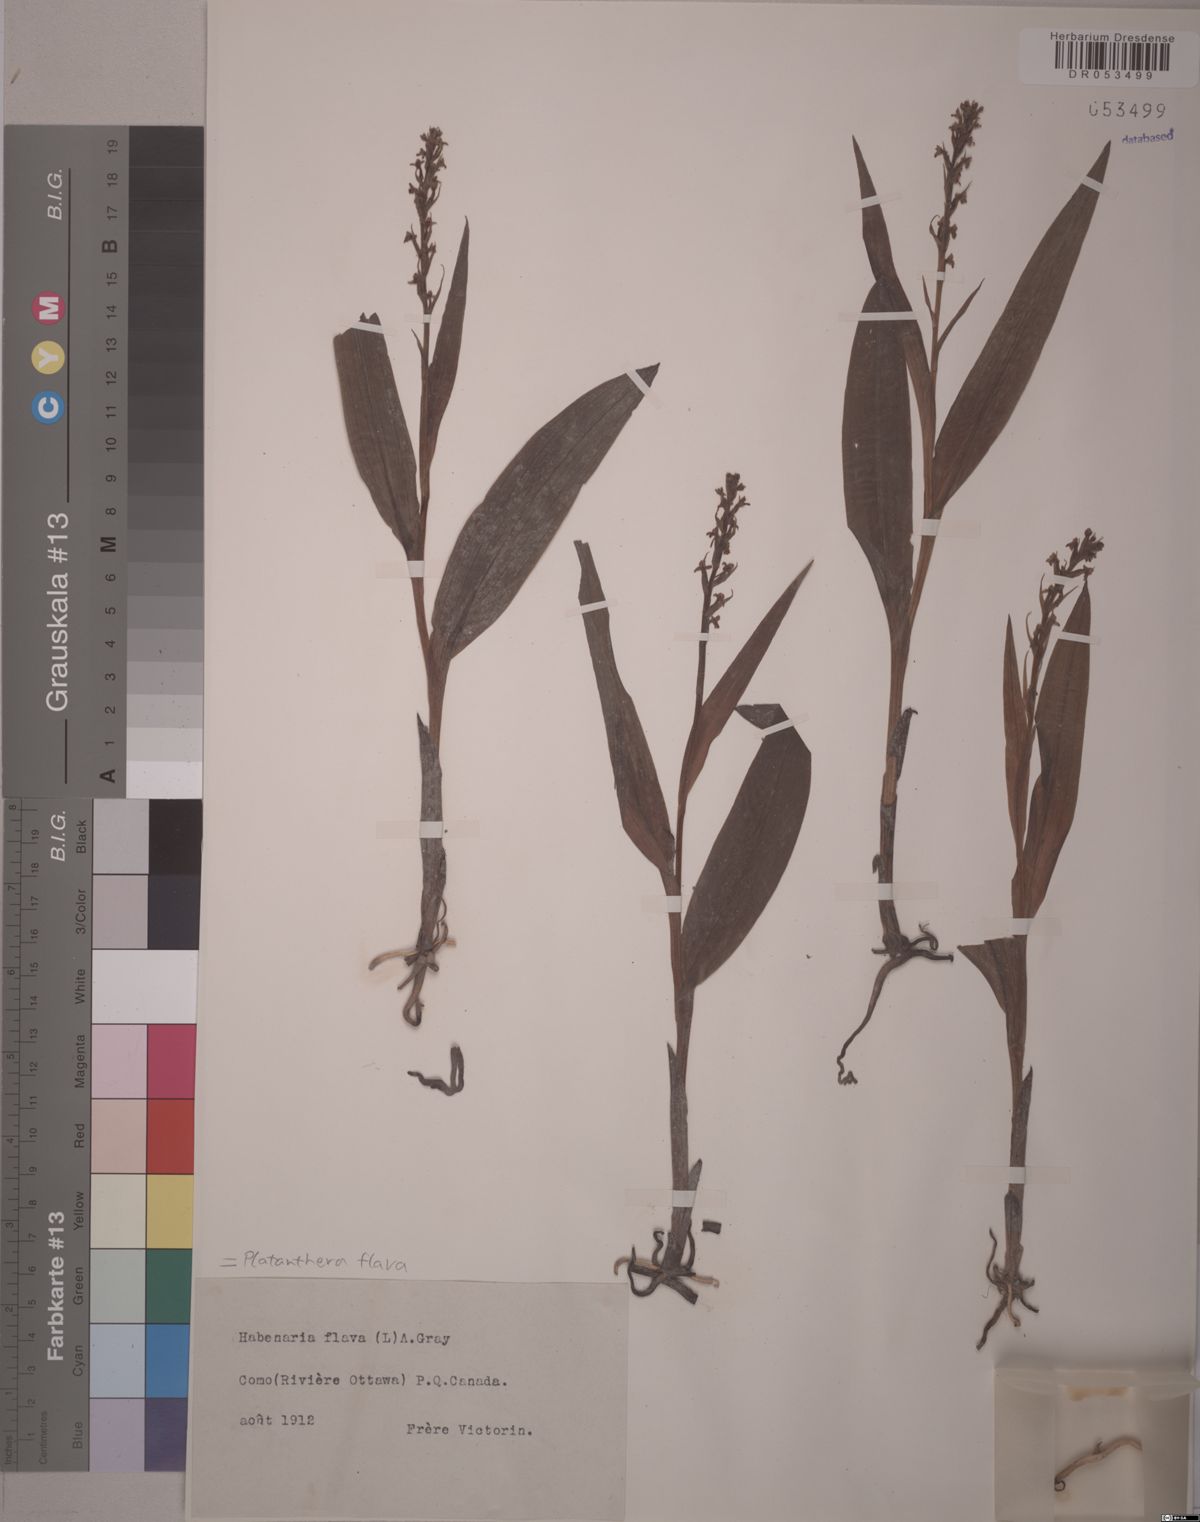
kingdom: Plantae
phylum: Tracheophyta
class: Liliopsida
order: Asparagales
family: Orchidaceae
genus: Platanthera
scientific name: Platanthera flava
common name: Gypsy-spikes
